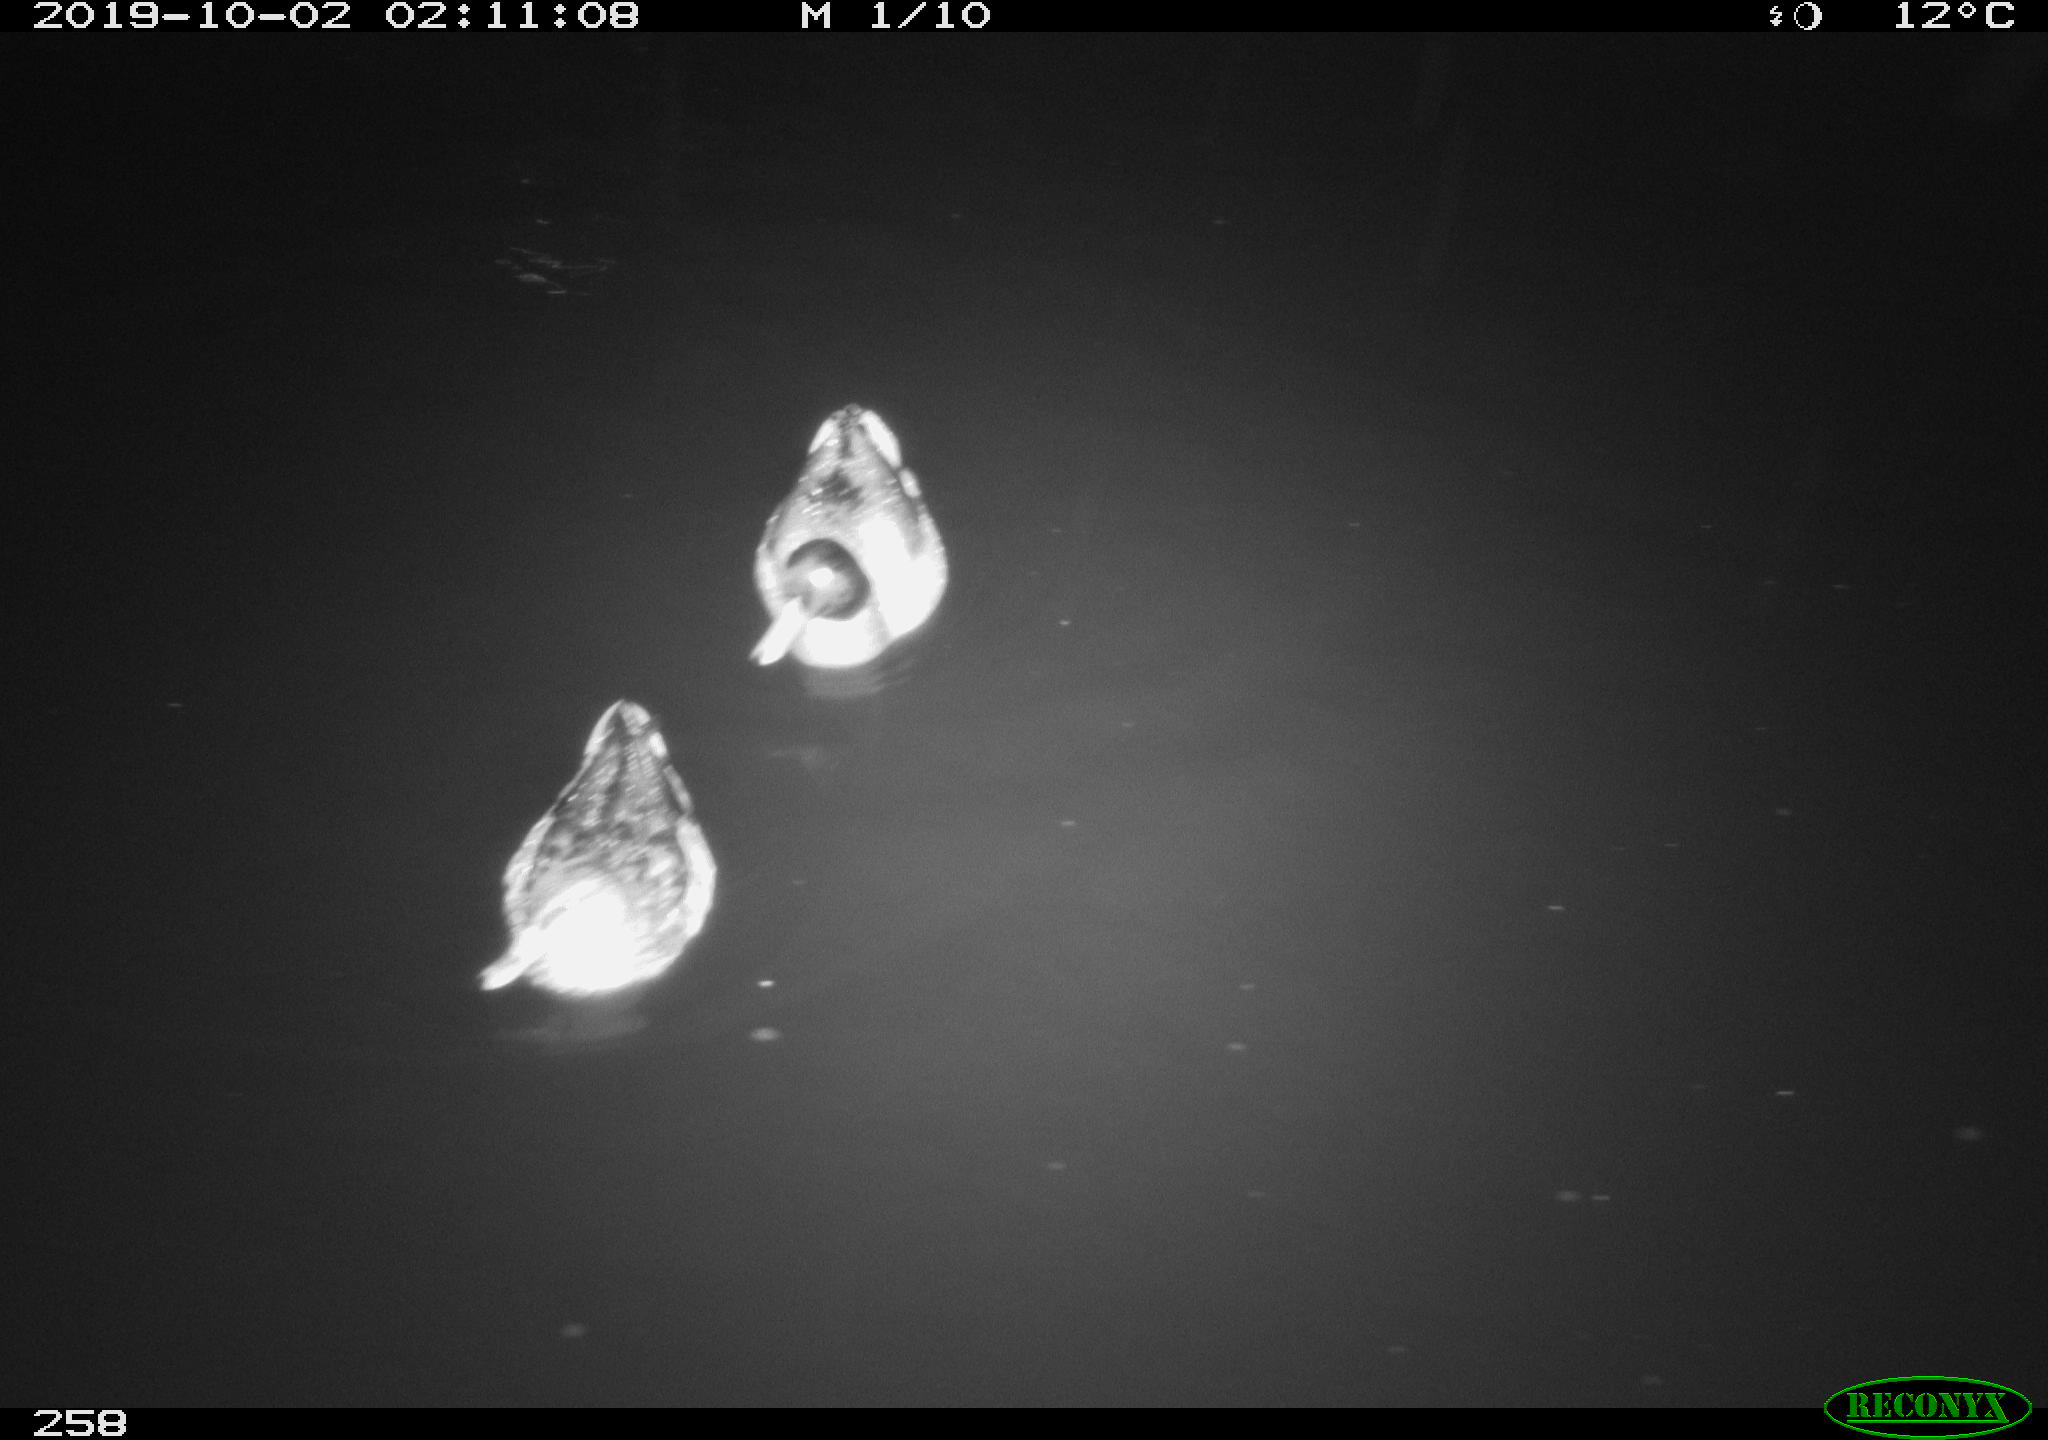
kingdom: Animalia
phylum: Chordata
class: Aves
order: Anseriformes
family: Anatidae
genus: Anas
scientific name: Anas platyrhynchos
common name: Mallard
